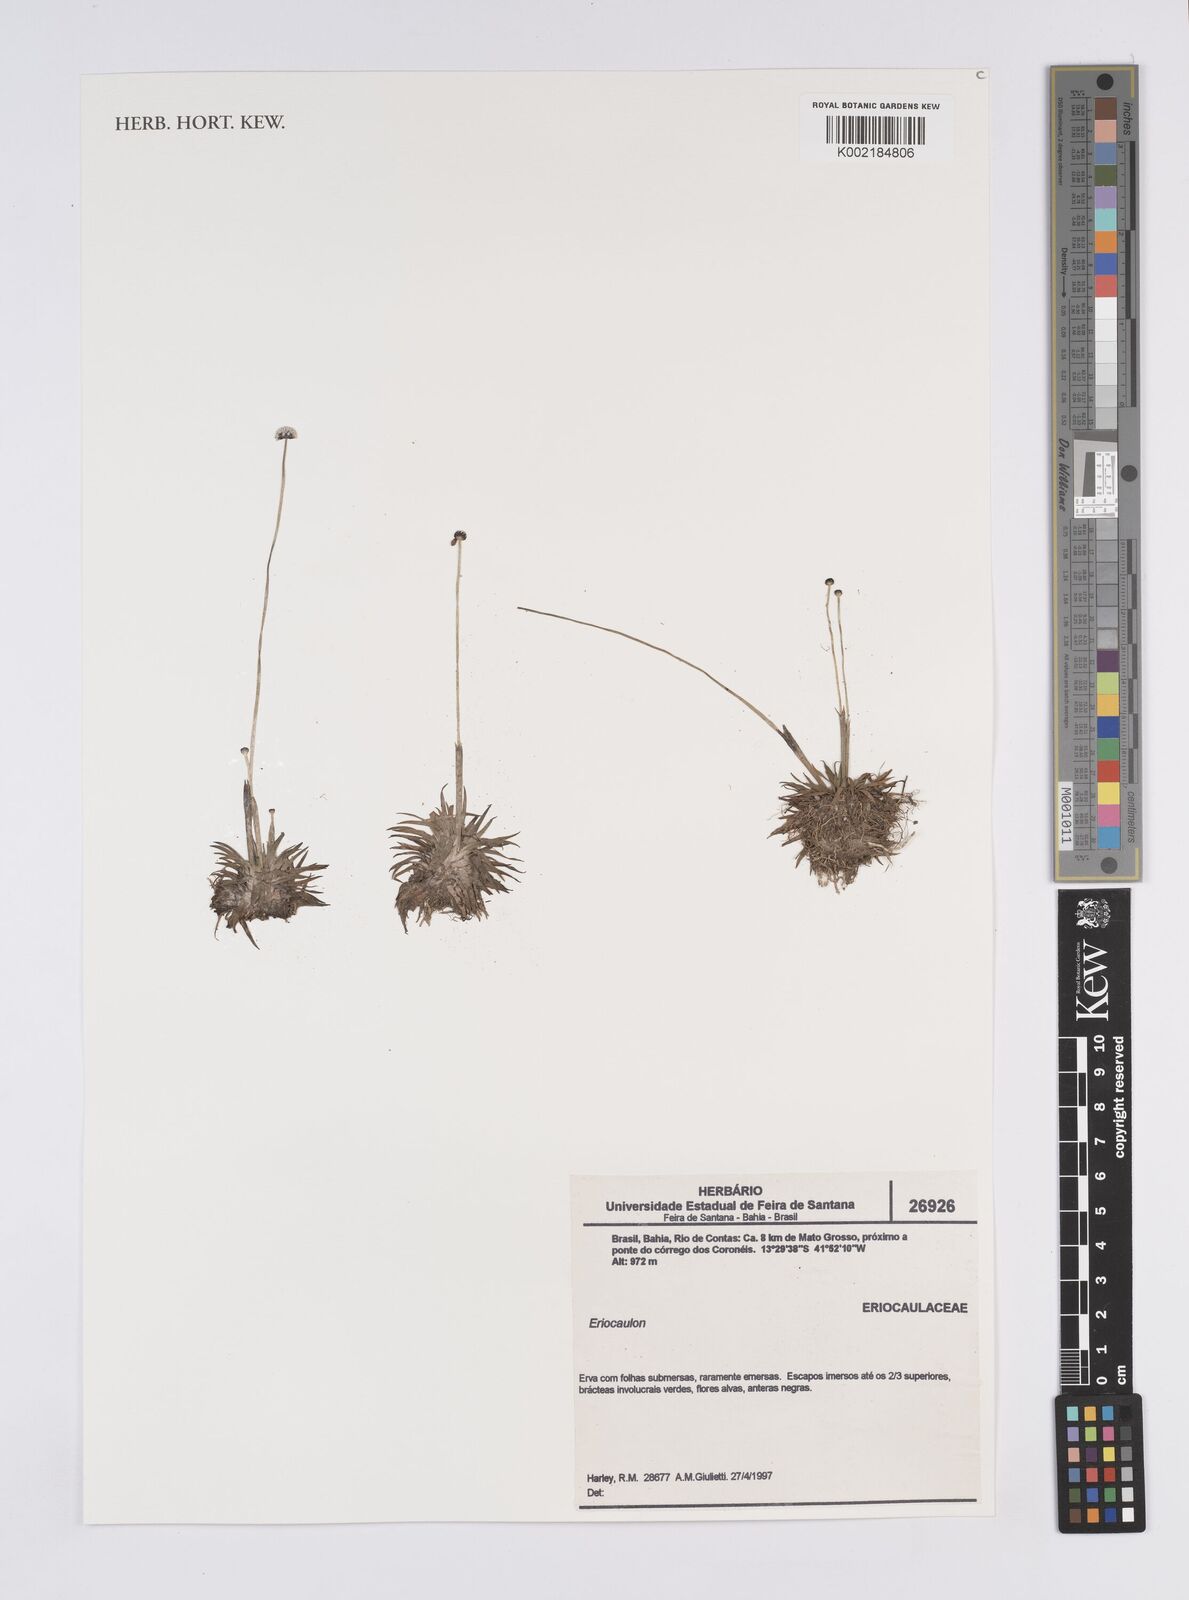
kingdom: Plantae
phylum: Tracheophyta
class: Liliopsida
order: Poales
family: Eriocaulaceae
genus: Eriocaulon
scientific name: Eriocaulon
